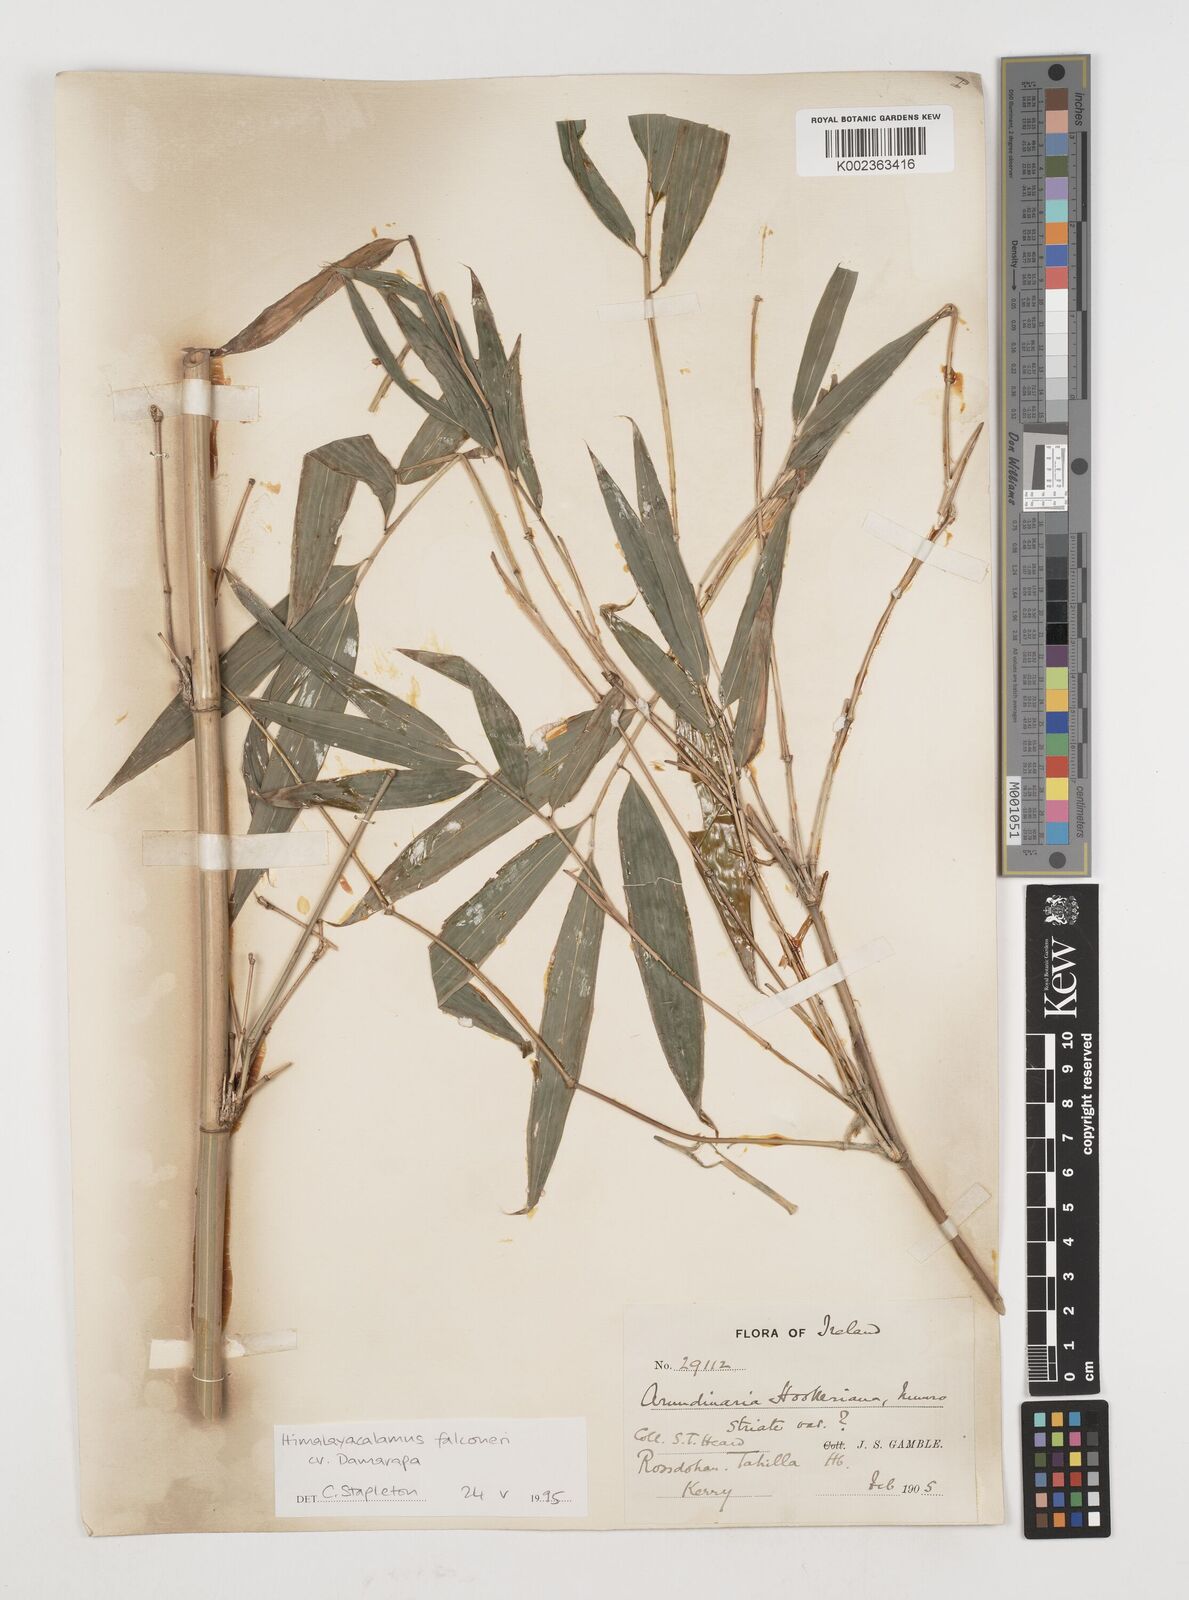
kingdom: Plantae
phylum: Tracheophyta
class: Liliopsida
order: Poales
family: Poaceae
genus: Himalayacalamus
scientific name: Himalayacalamus falconeri
